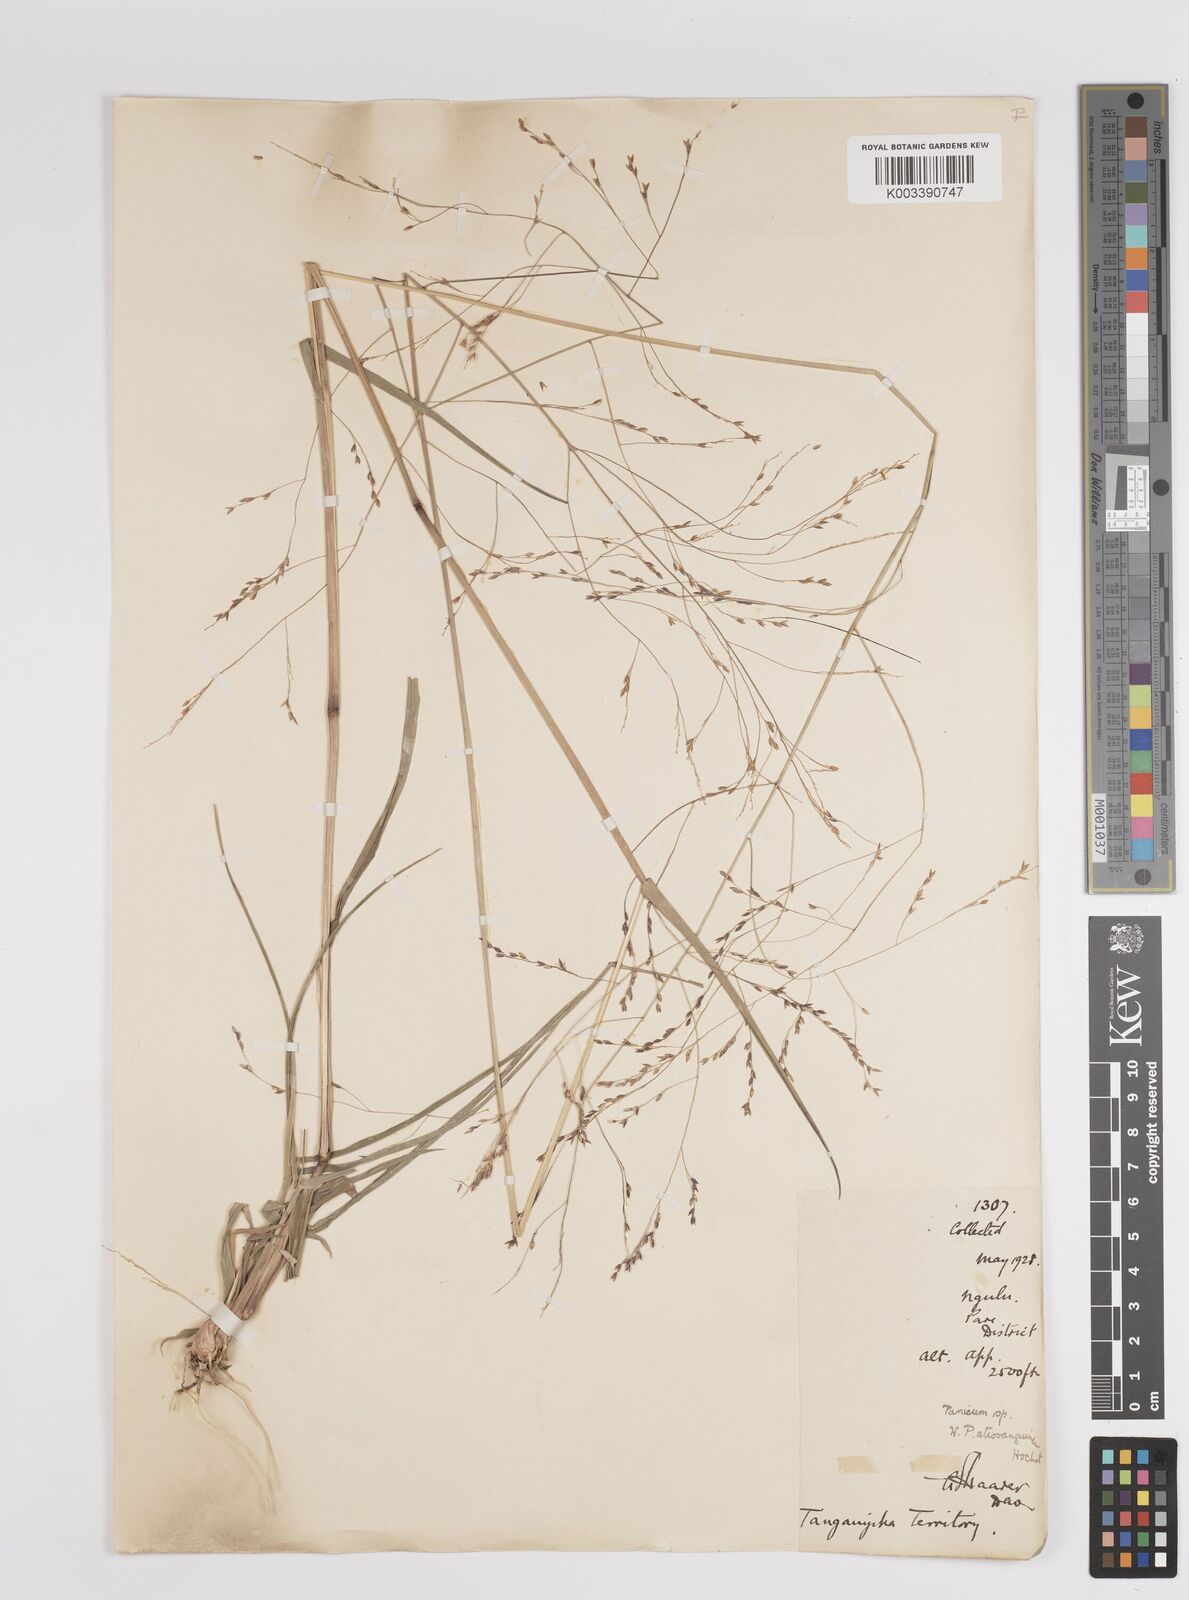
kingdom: Plantae
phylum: Tracheophyta
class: Liliopsida
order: Poales
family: Poaceae
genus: Panicum
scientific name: Panicum porphyrrhizos
